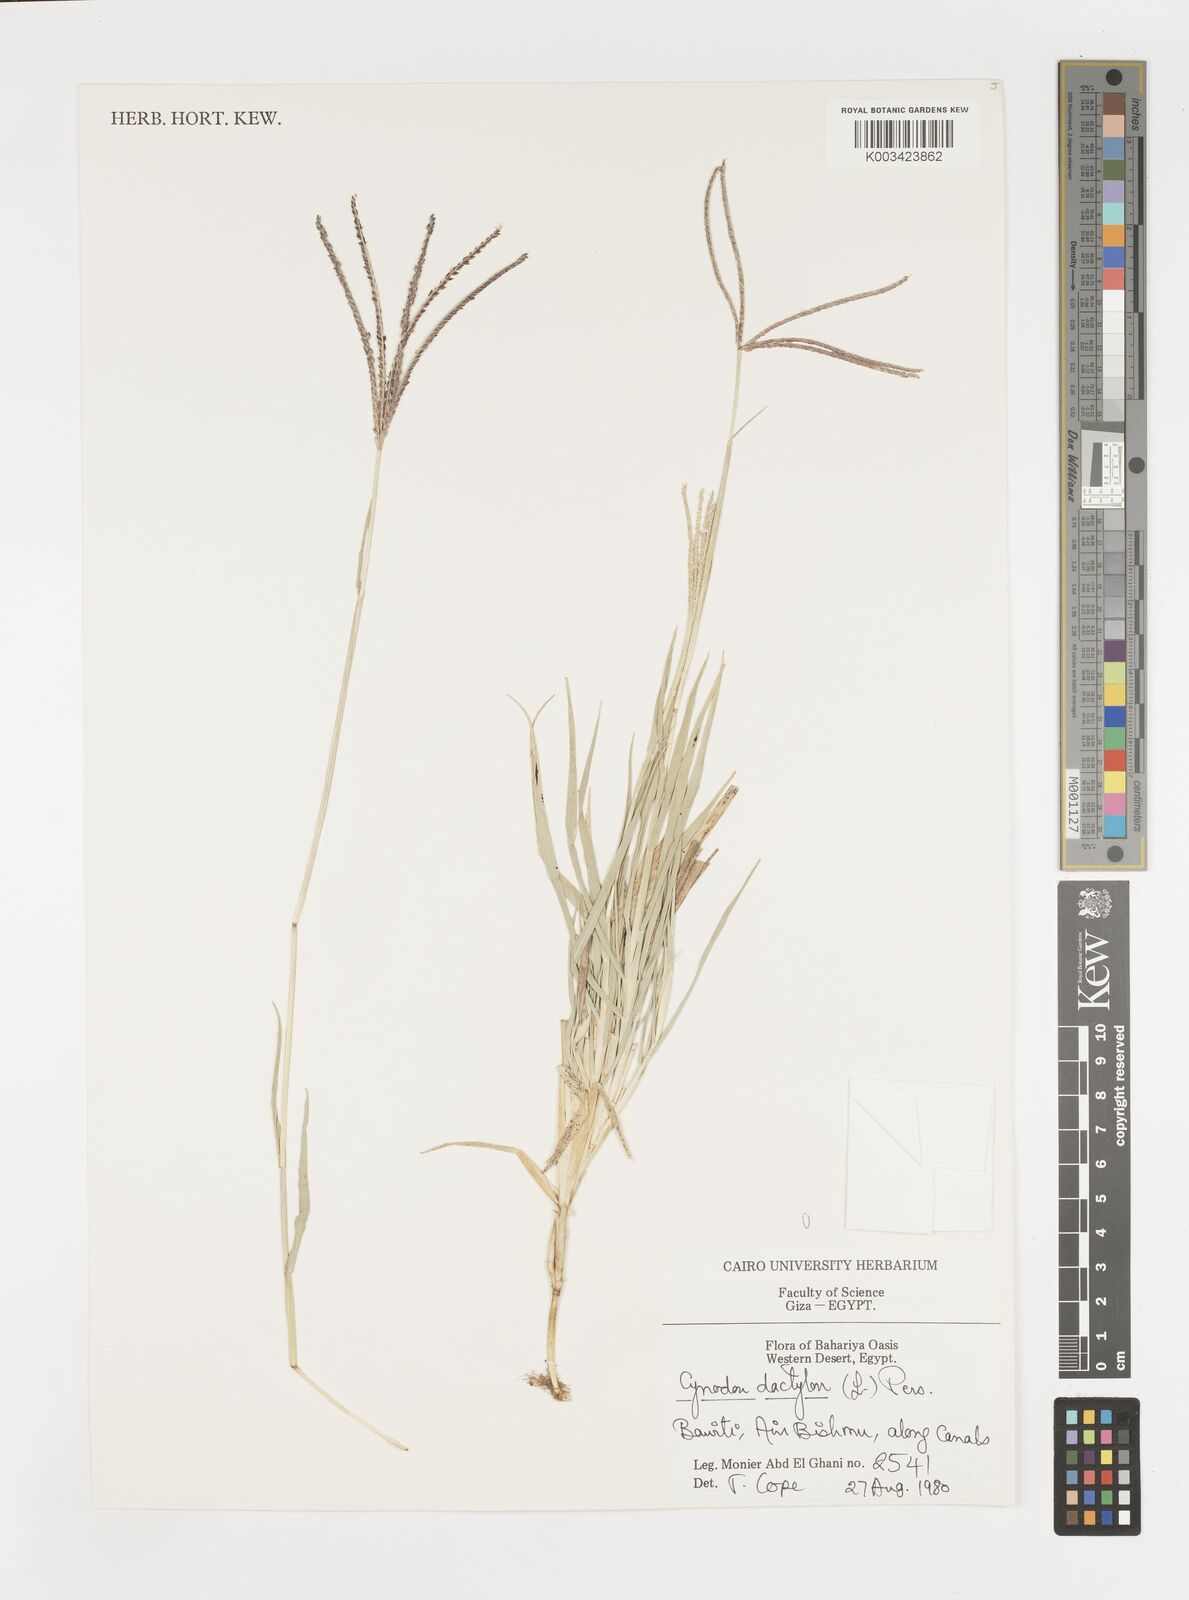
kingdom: Plantae
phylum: Tracheophyta
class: Liliopsida
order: Poales
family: Poaceae
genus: Cynodon
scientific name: Cynodon dactylon
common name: Bermuda grass
